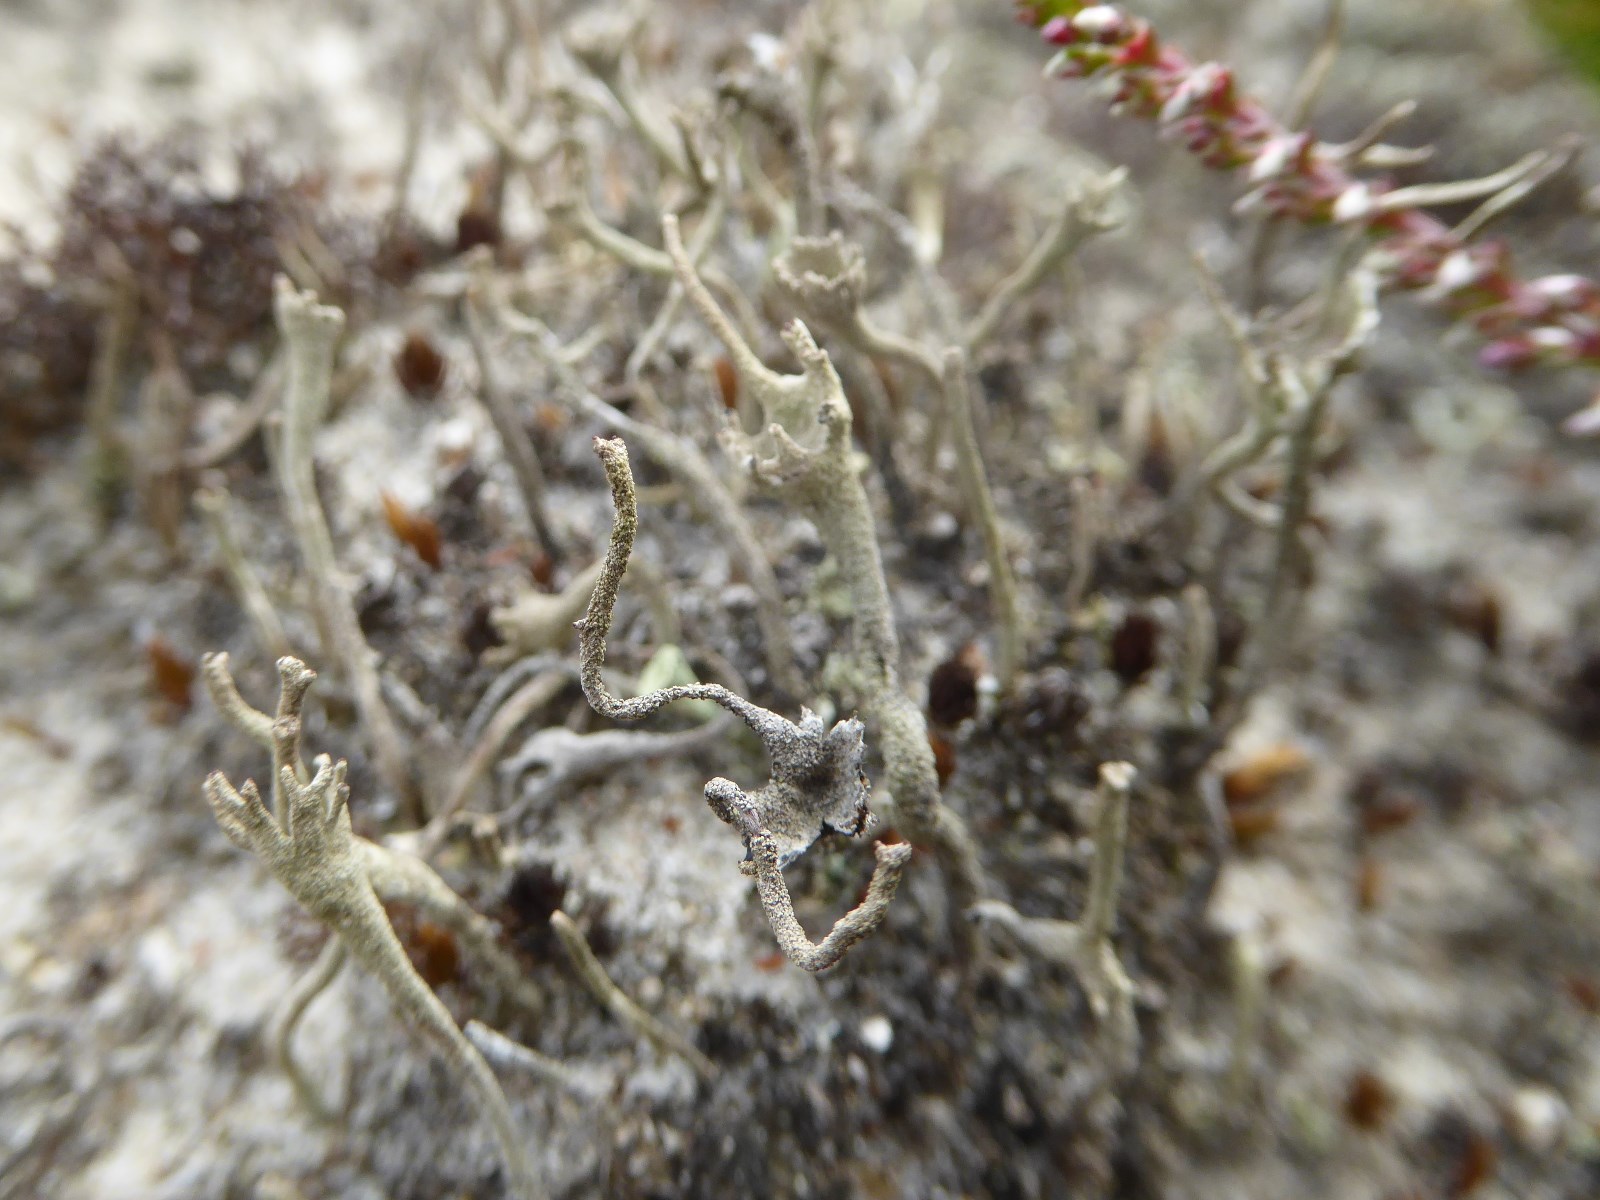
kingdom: Fungi
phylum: Ascomycota
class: Lecanoromycetes
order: Lecanorales
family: Cladoniaceae
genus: Cladonia
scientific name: Cladonia subulata
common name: spids bægerlav
